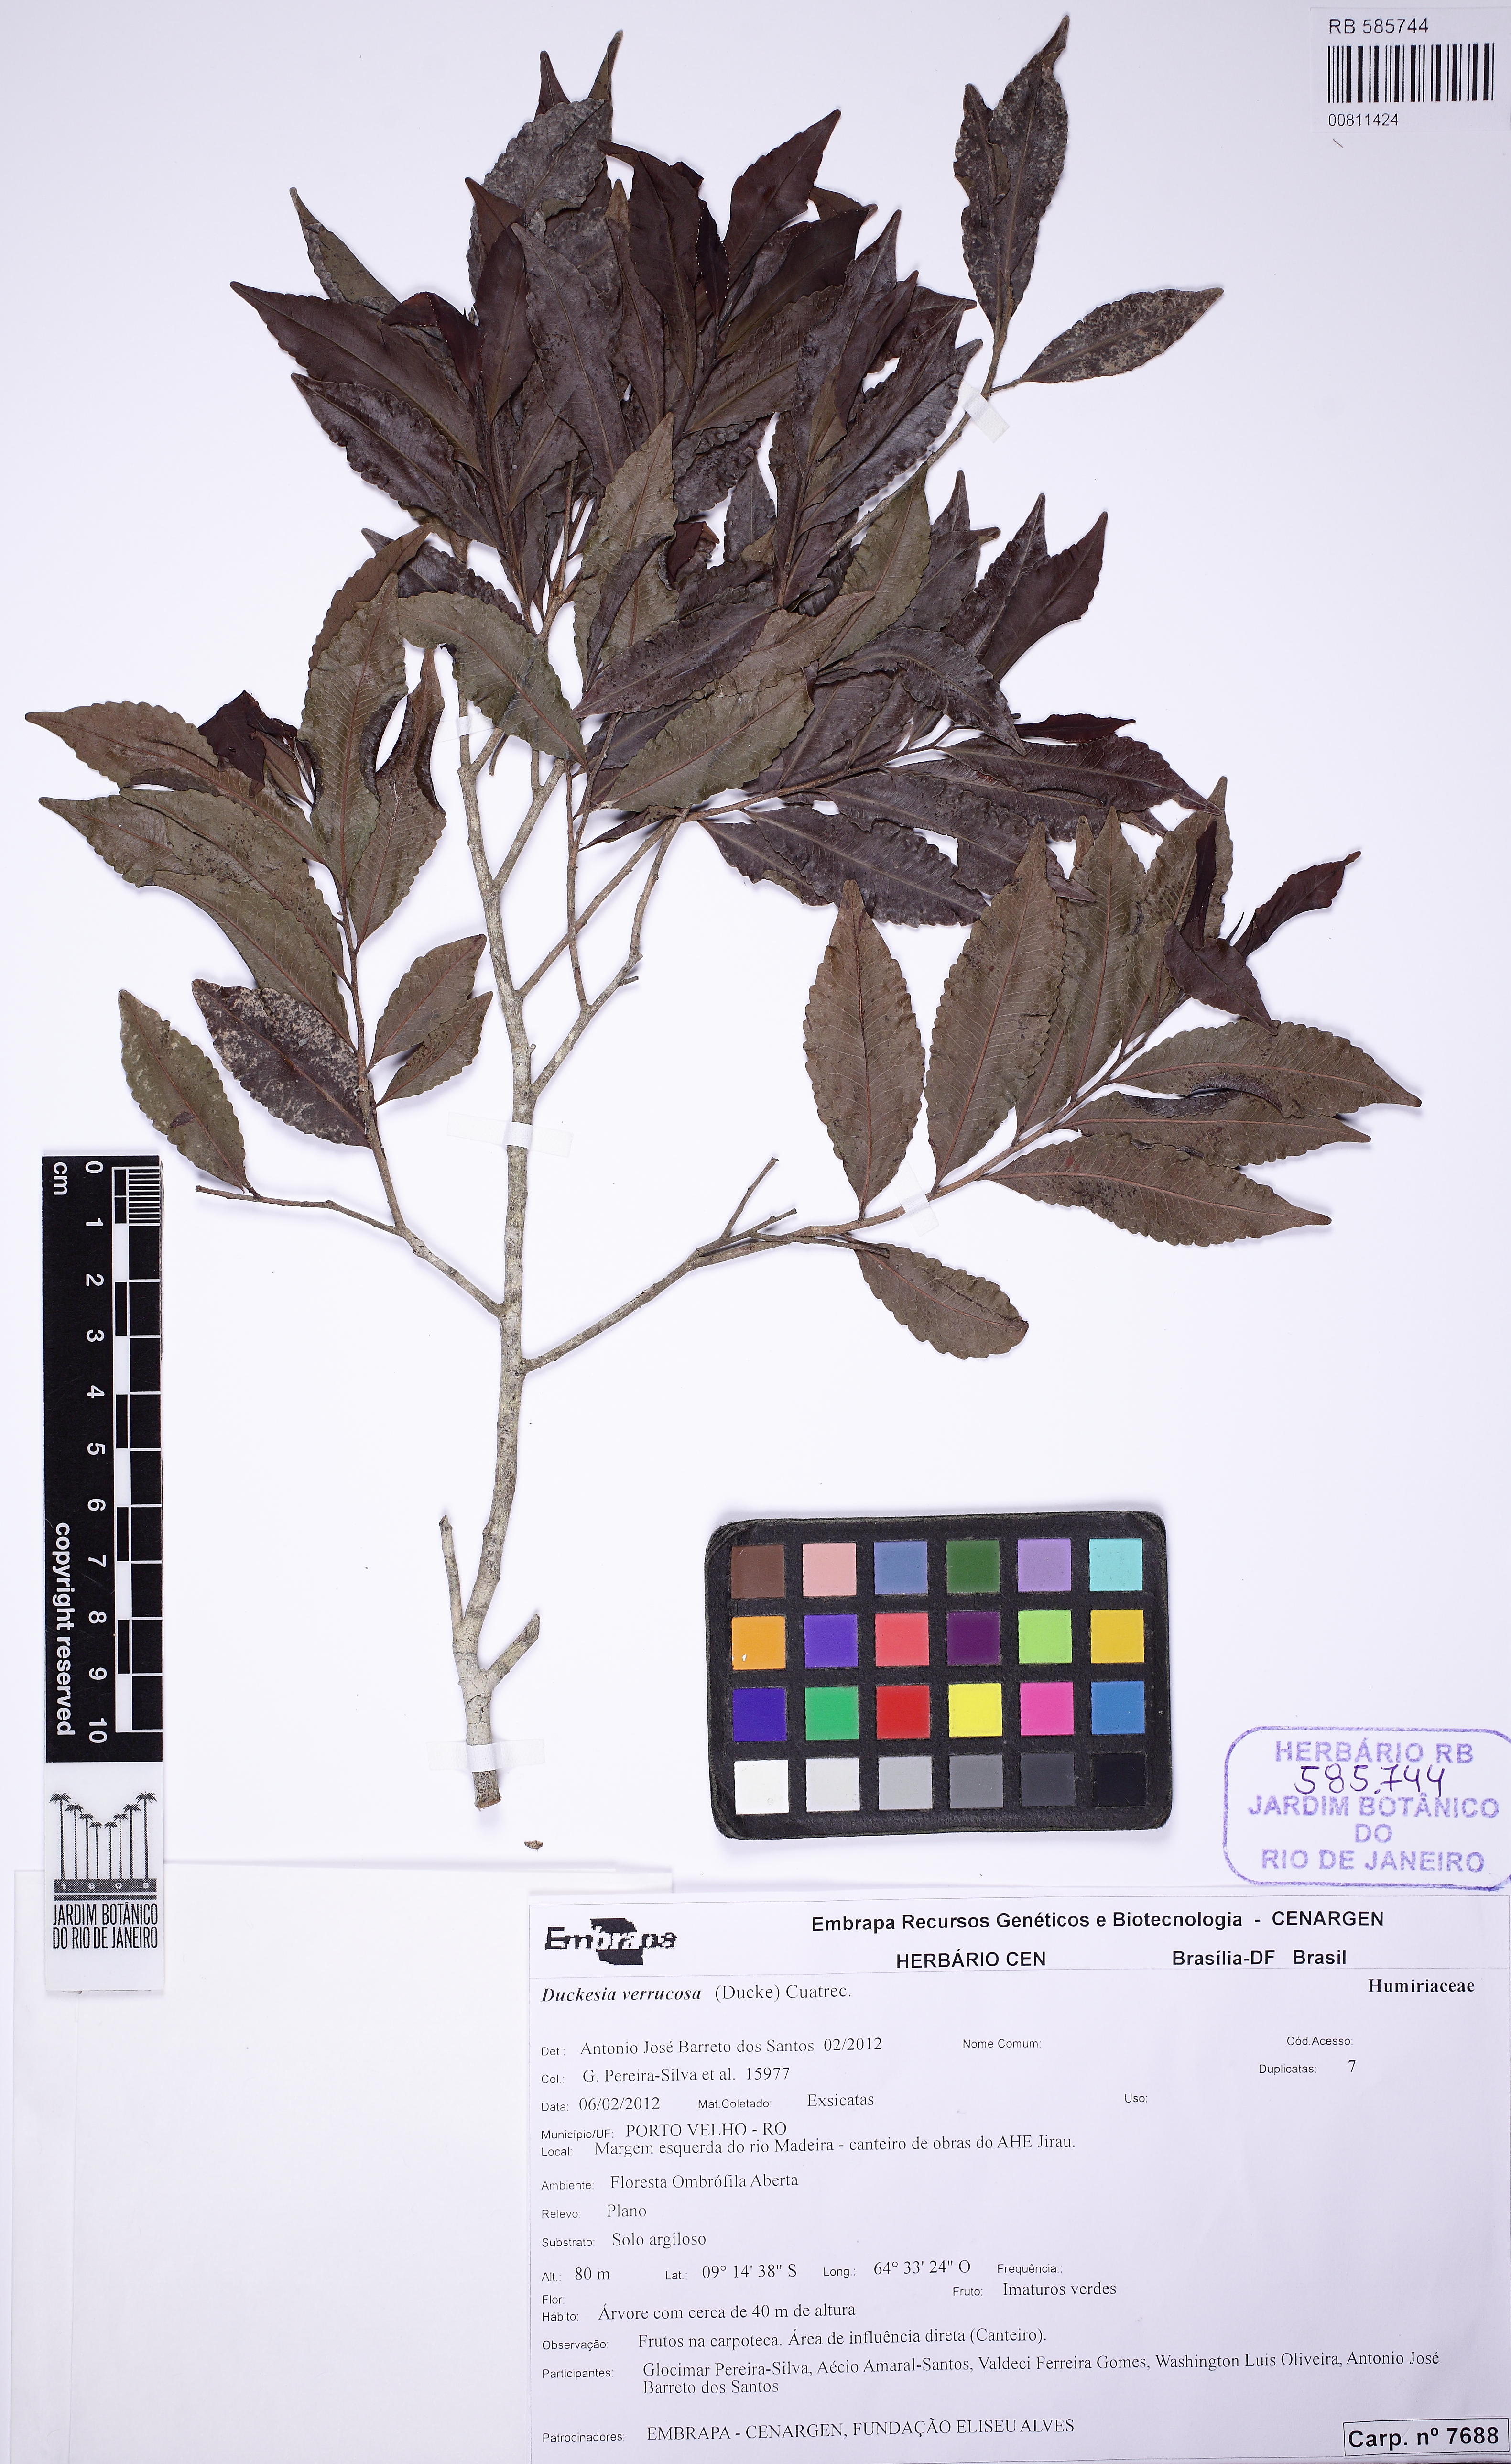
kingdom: Plantae
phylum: Tracheophyta
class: Magnoliopsida
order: Malpighiales
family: Humiriaceae
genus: Duckesia
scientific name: Duckesia verrucosa
